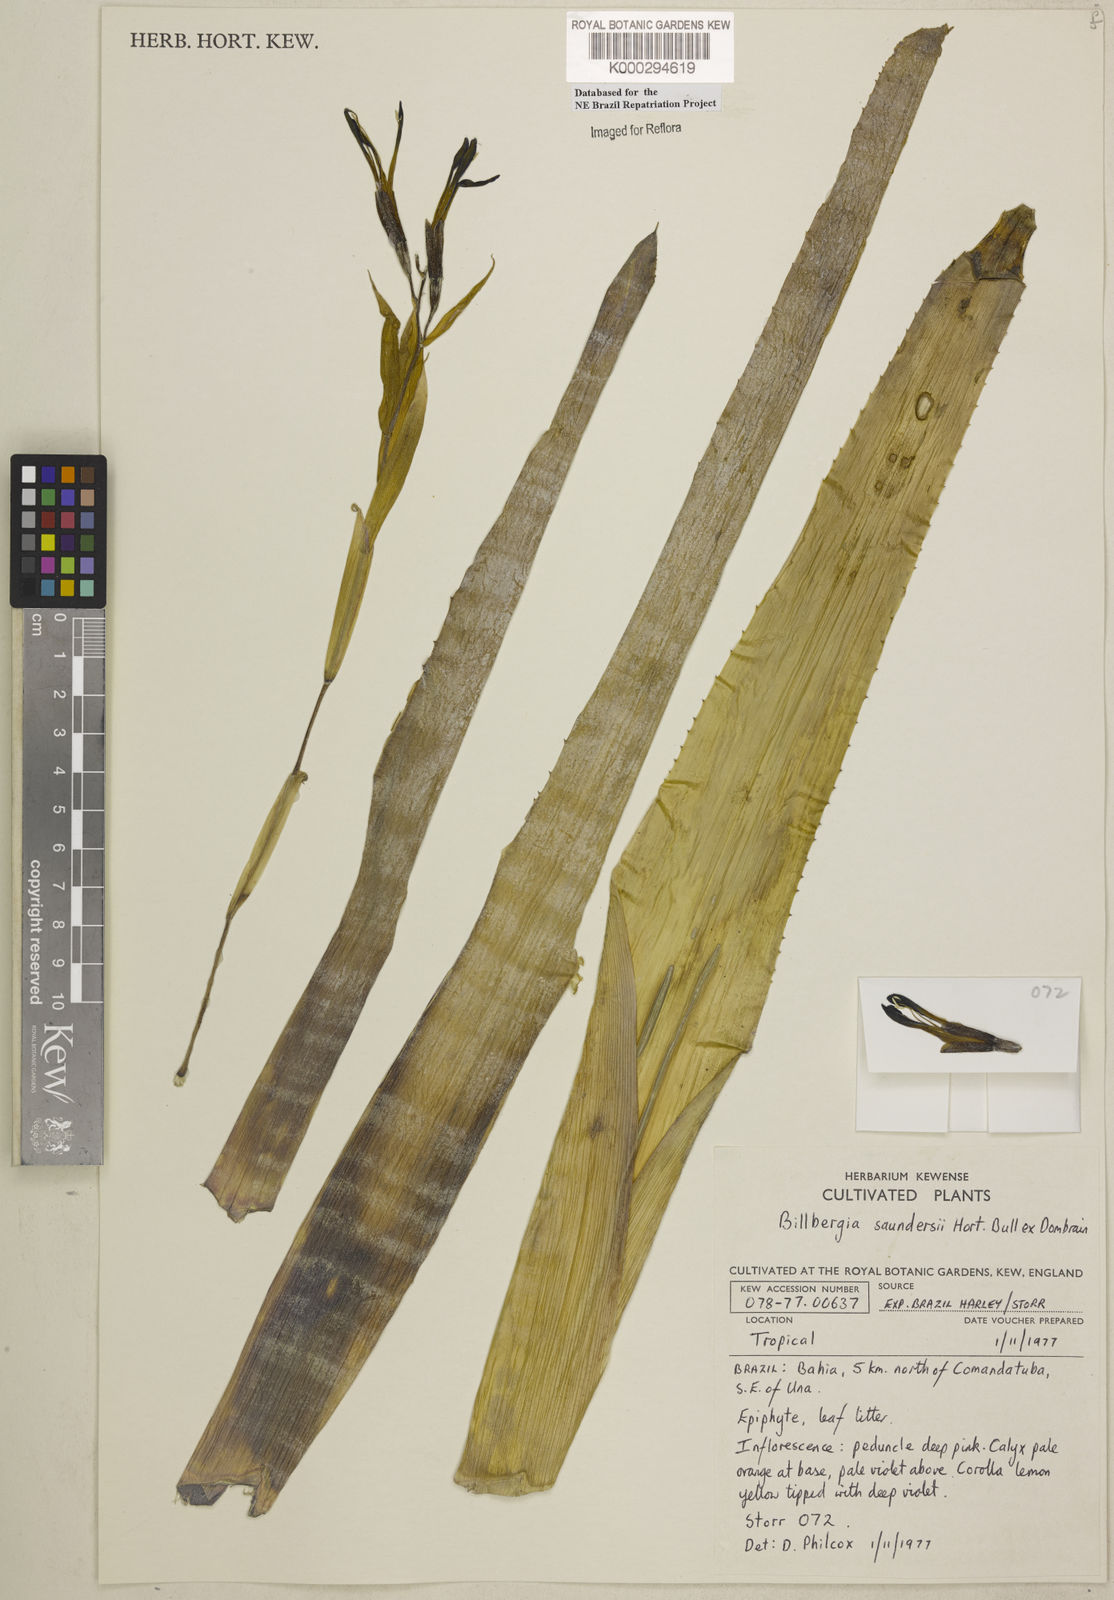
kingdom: Plantae
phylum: Tracheophyta
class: Liliopsida
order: Poales
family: Bromeliaceae
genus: Billbergia
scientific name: Billbergia saundersii
